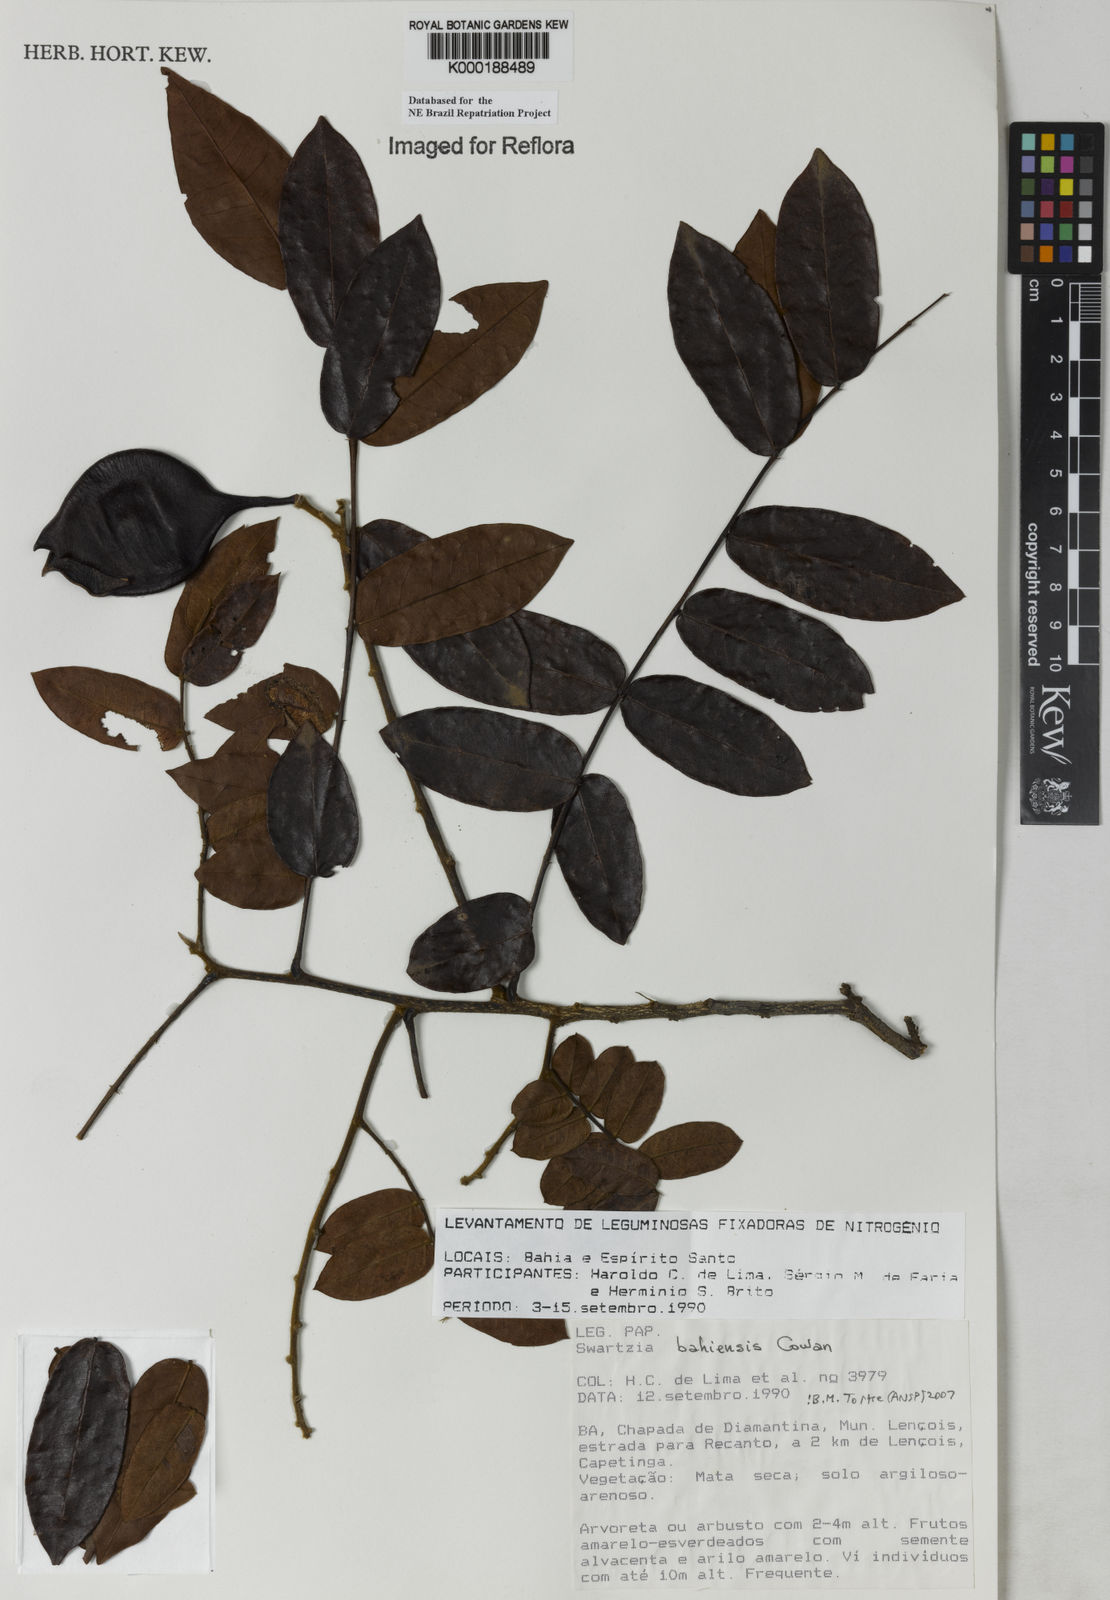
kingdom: Plantae
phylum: Tracheophyta
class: Magnoliopsida
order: Fabales
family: Fabaceae
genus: Swartzia
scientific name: Swartzia bahiensis
